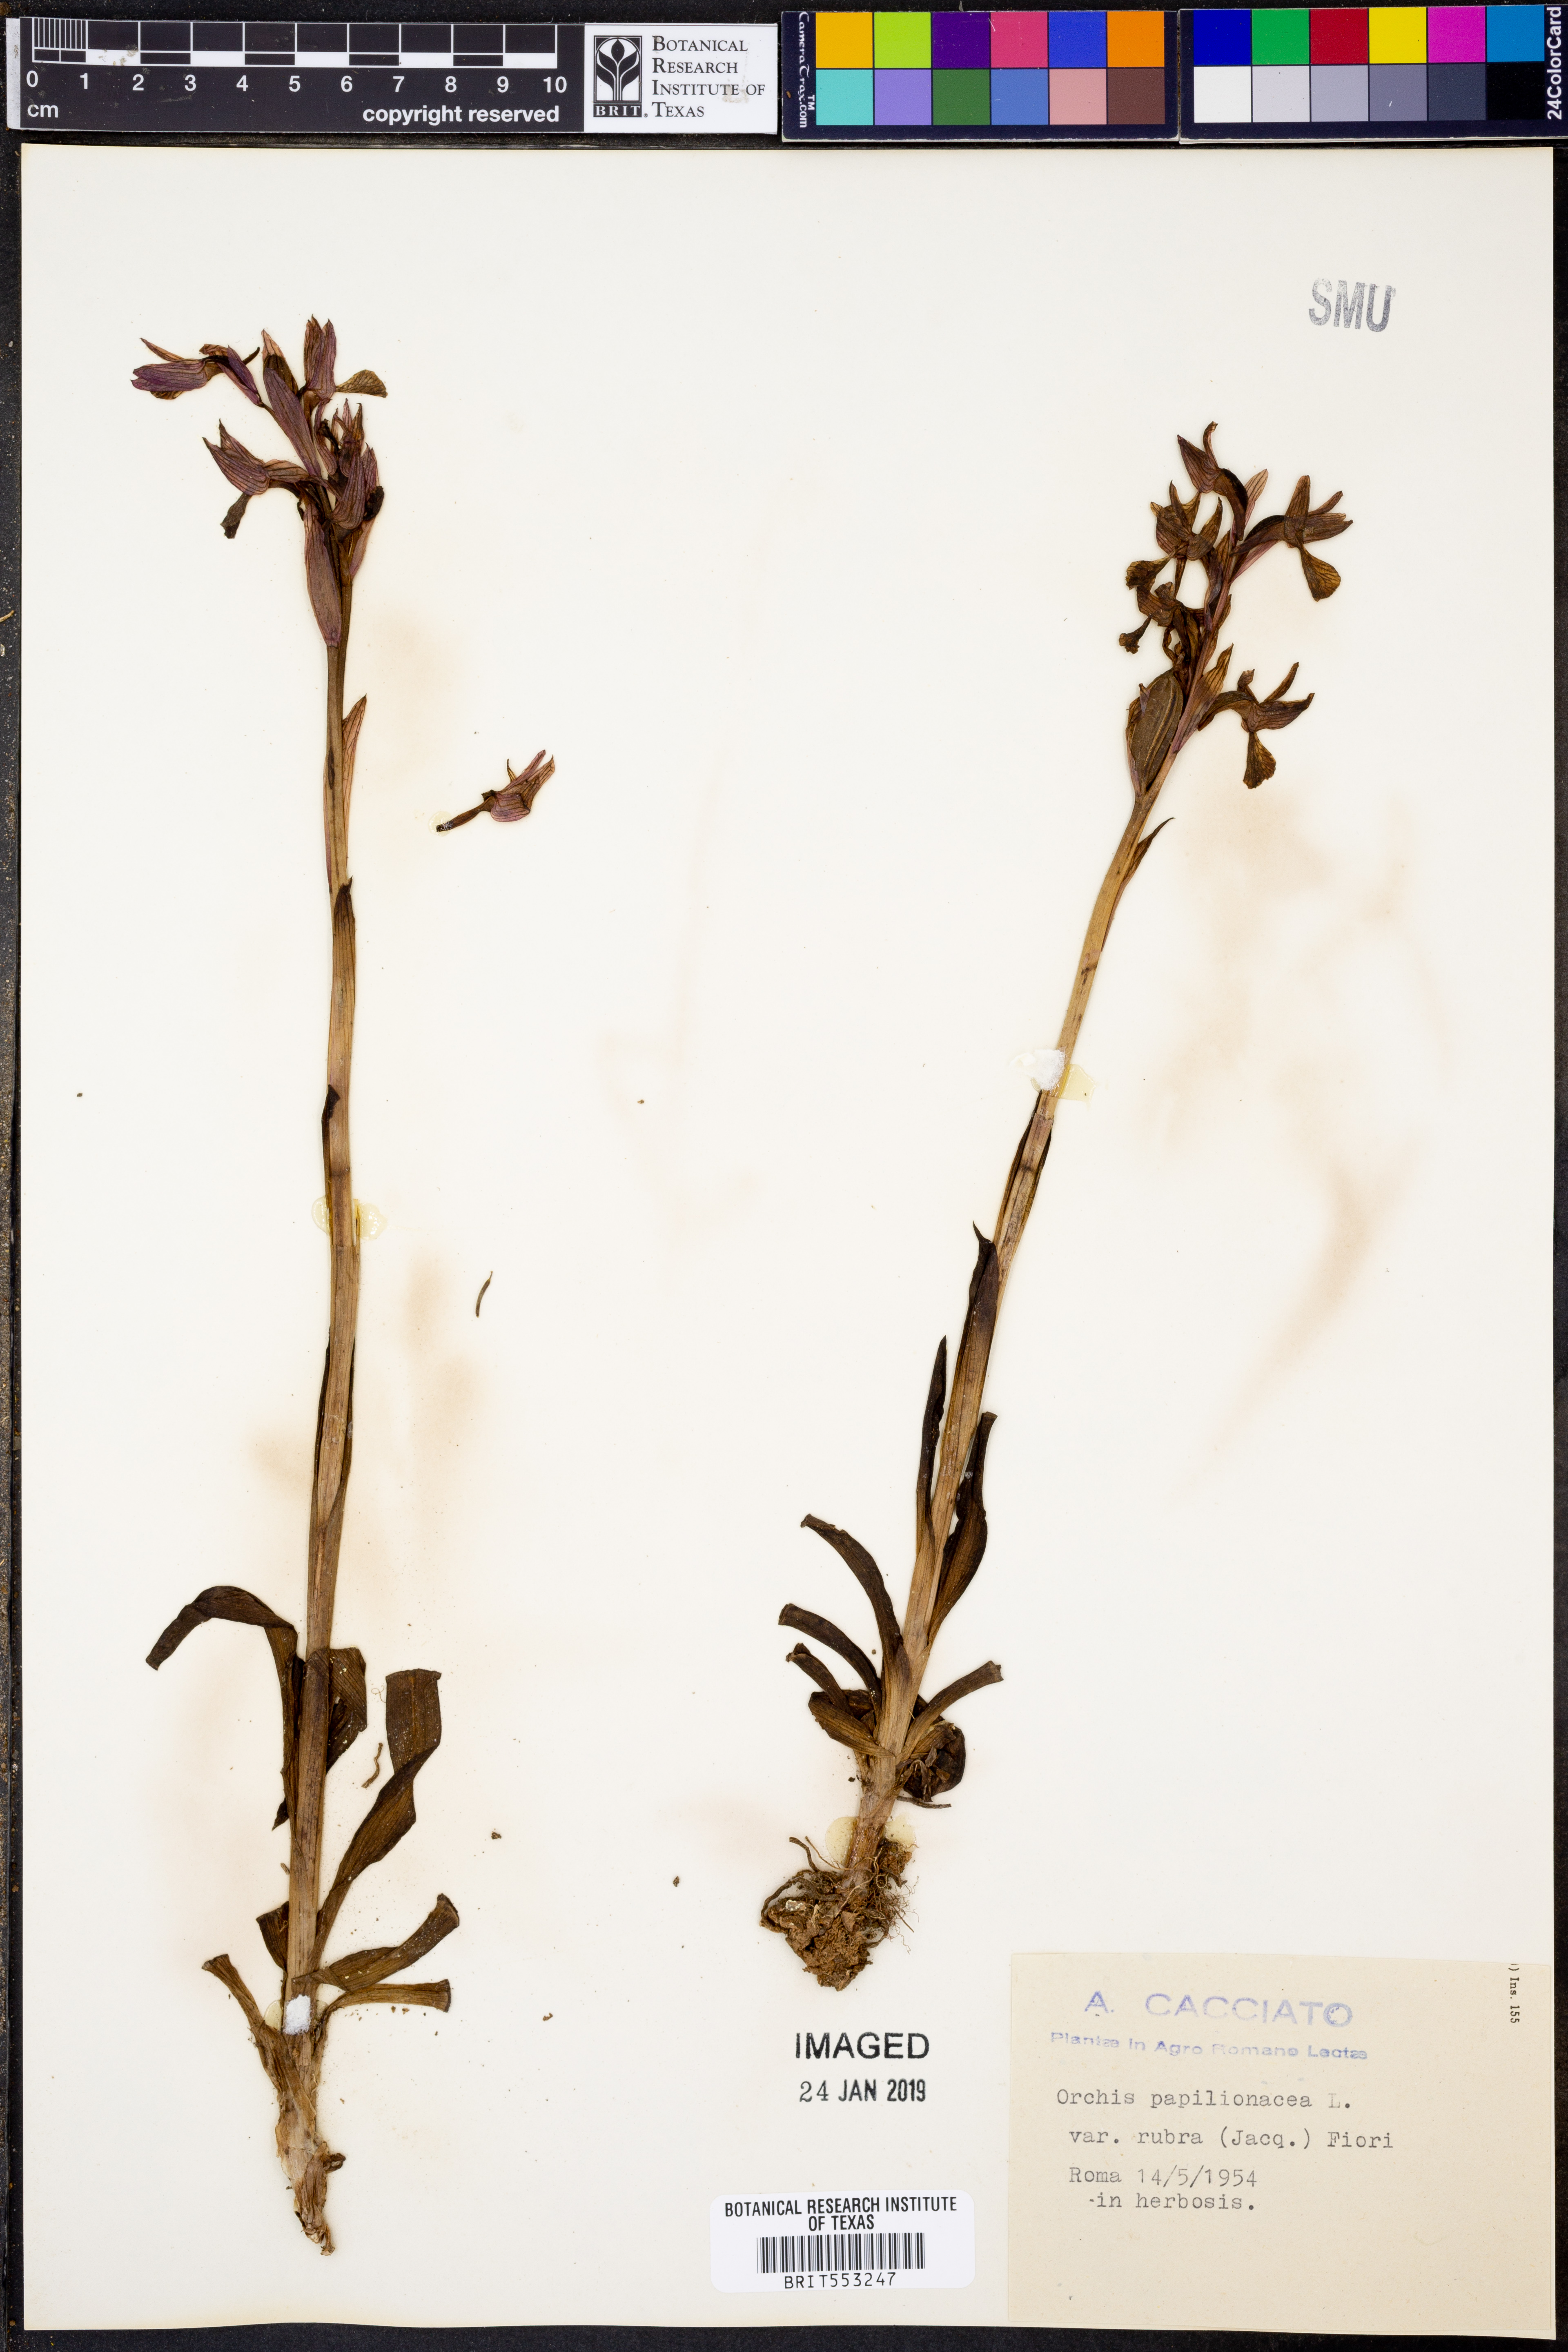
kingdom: Plantae
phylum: Tracheophyta
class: Liliopsida
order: Asparagales
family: Orchidaceae
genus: Anacamptis
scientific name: Anacamptis papilionacea
